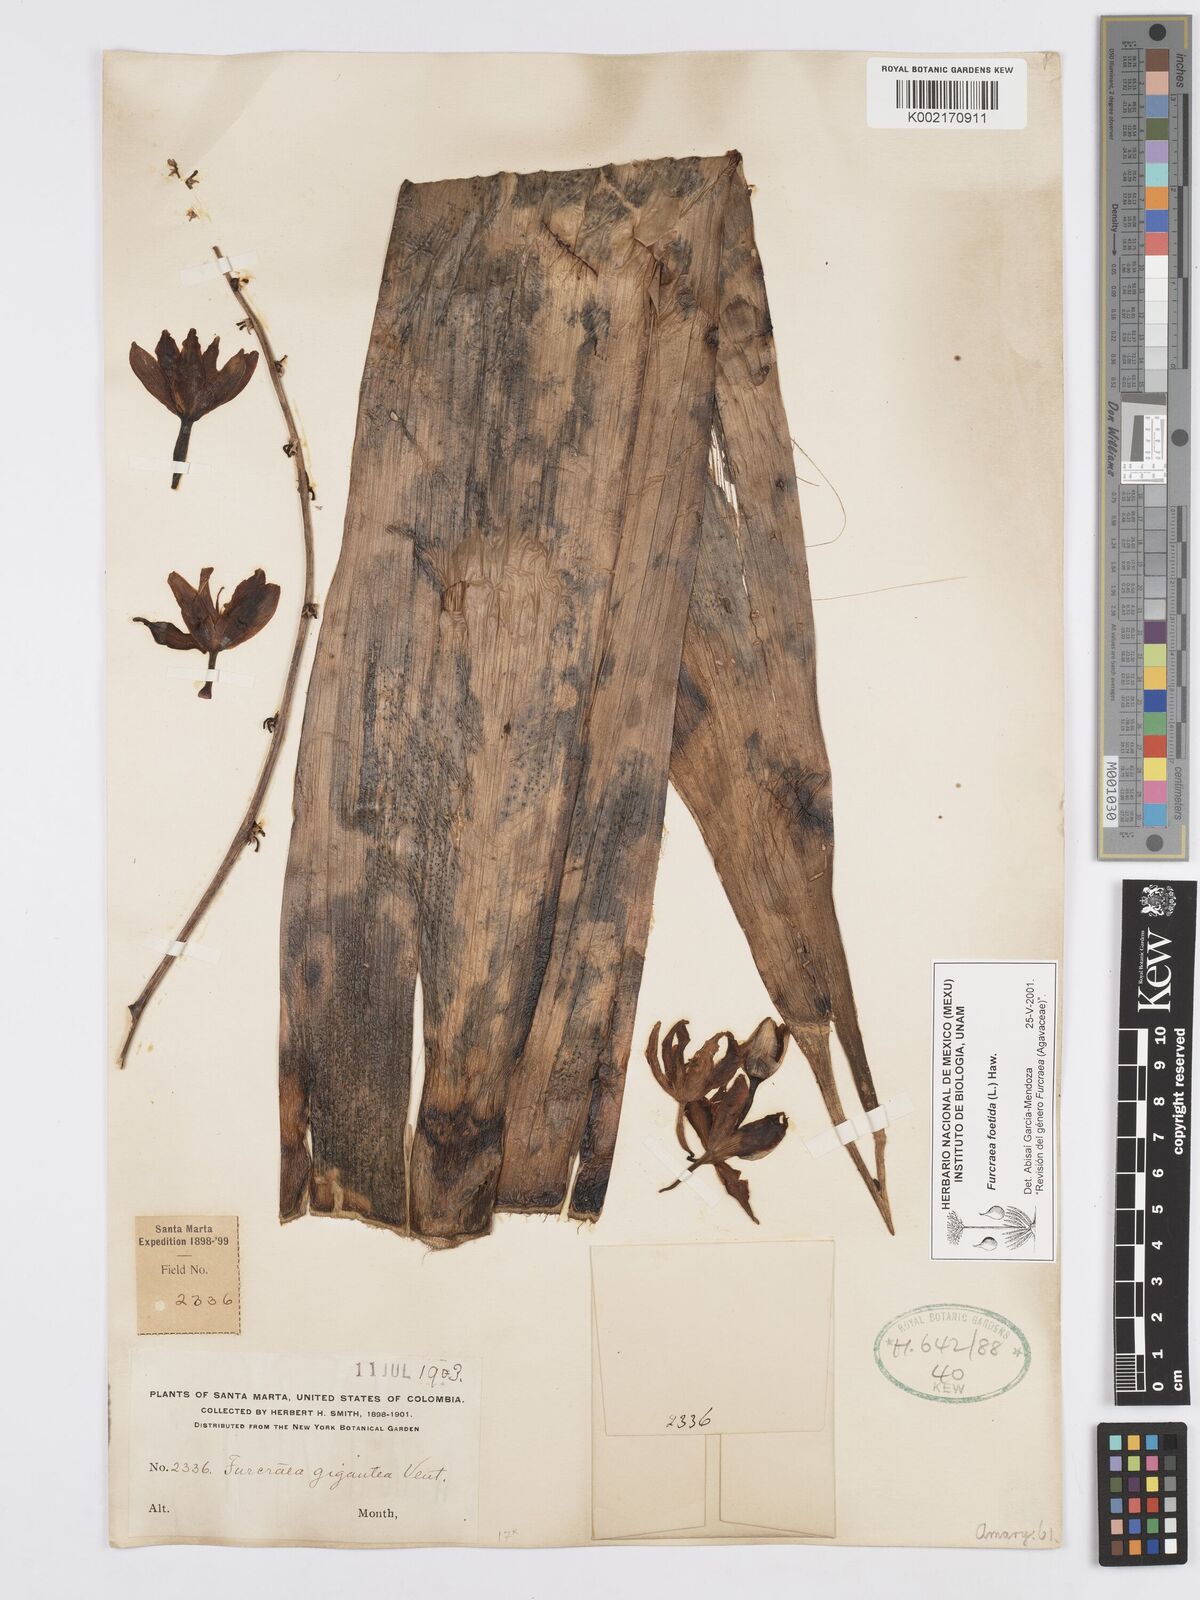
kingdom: Plantae
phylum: Tracheophyta
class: Liliopsida
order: Asparagales
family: Asparagaceae
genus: Furcraea
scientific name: Furcraea foetida
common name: Mauritius hemp
